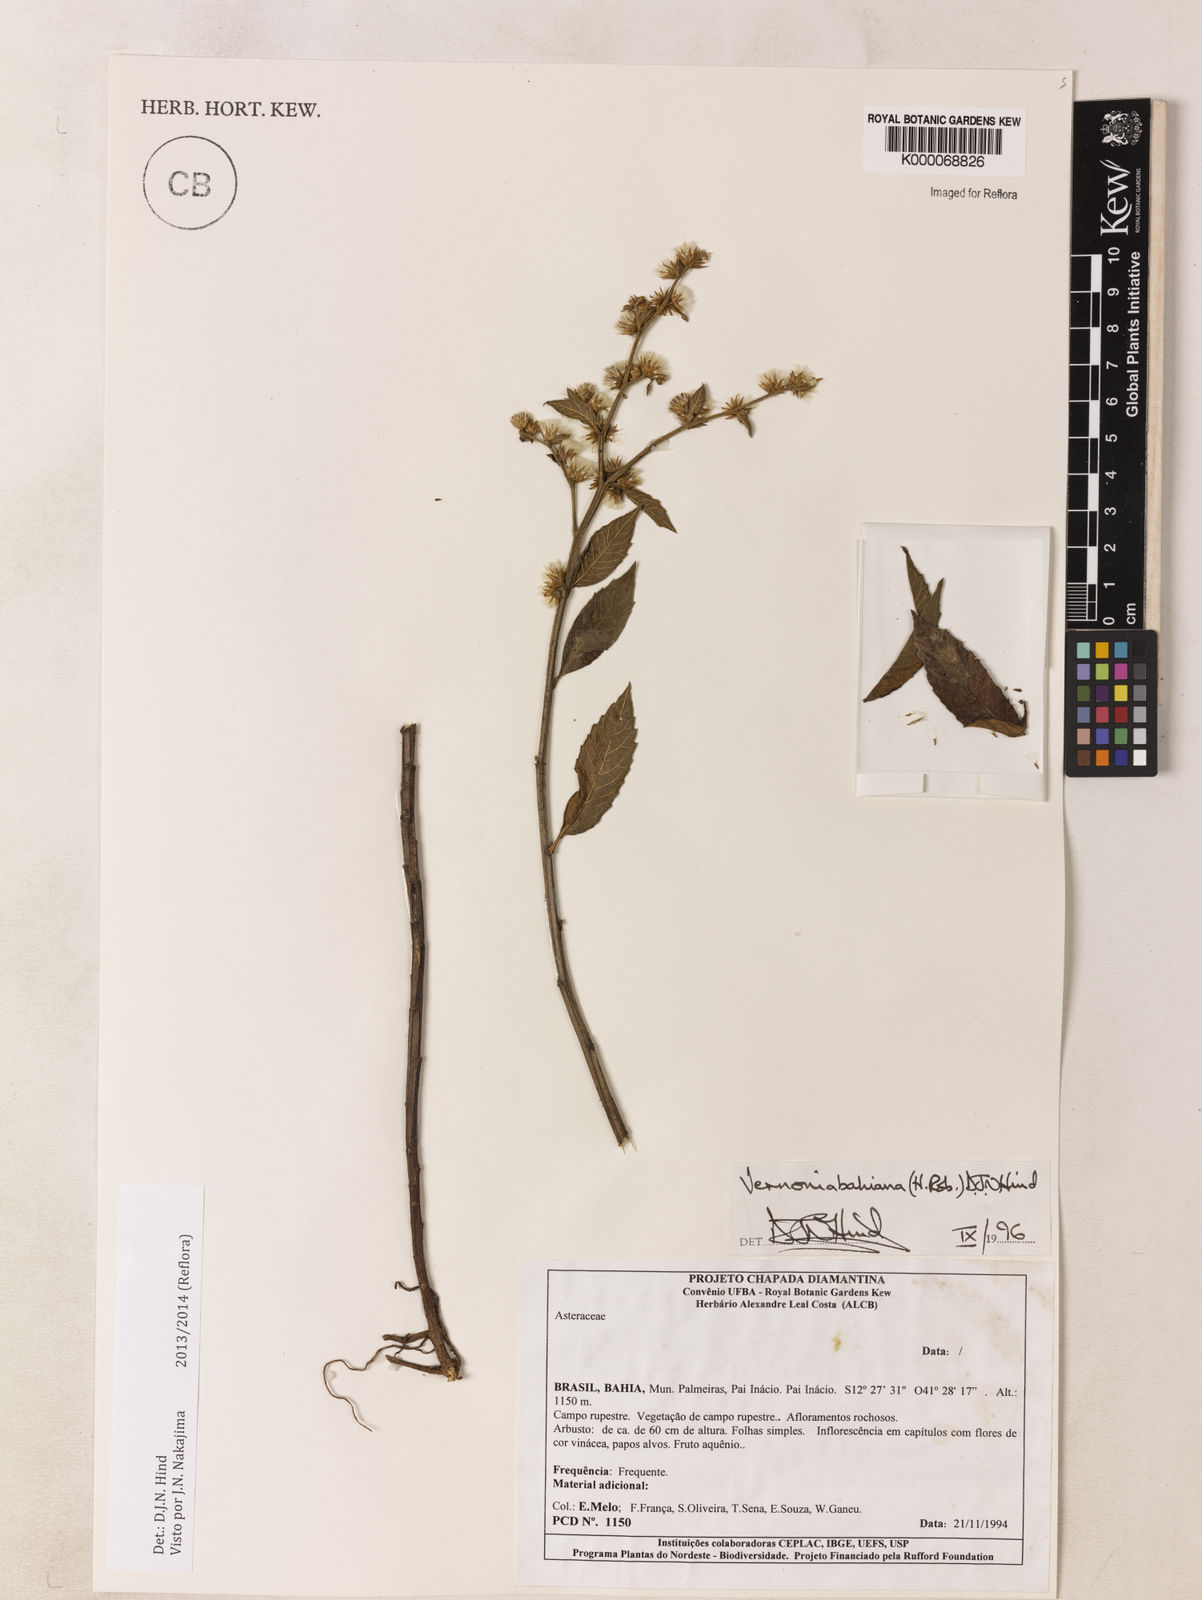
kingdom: Plantae
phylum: Tracheophyta
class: Magnoliopsida
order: Asterales
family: Asteraceae
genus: Lepidaploa
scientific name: Lepidaploa bahiana
